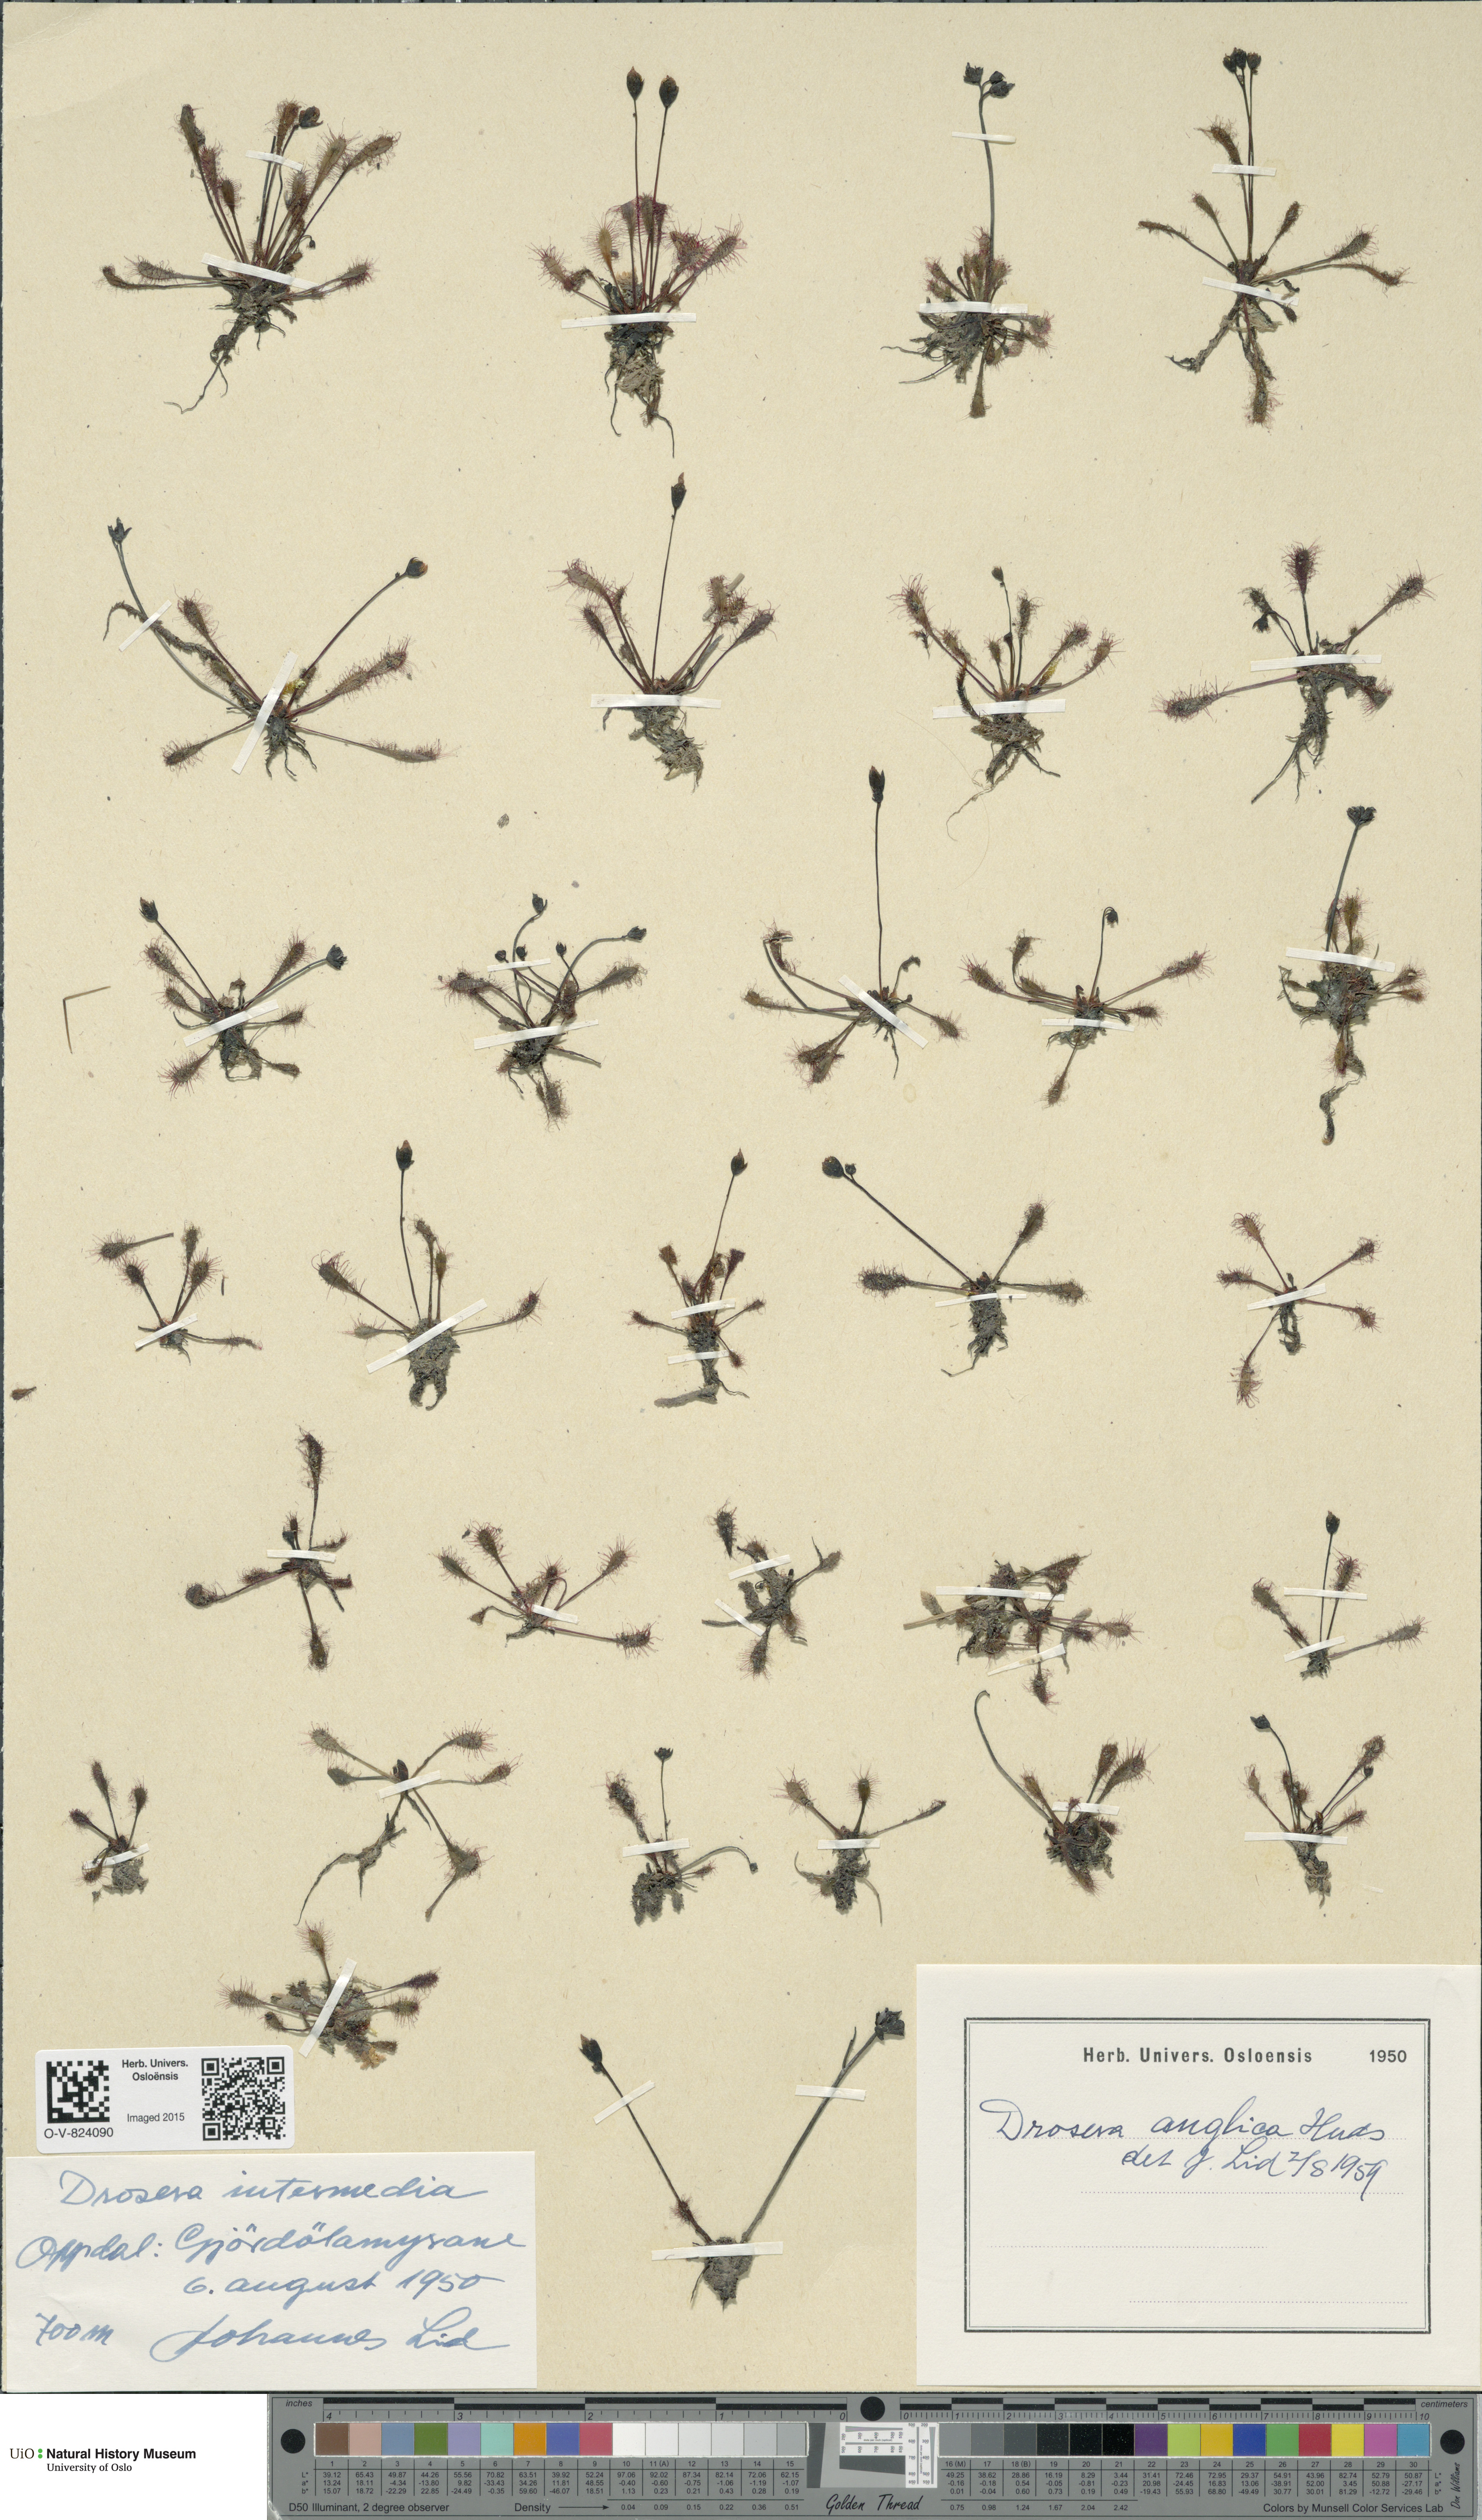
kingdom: Plantae
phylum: Tracheophyta
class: Magnoliopsida
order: Caryophyllales
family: Droseraceae
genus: Drosera
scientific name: Drosera anglica
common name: Great sundew
